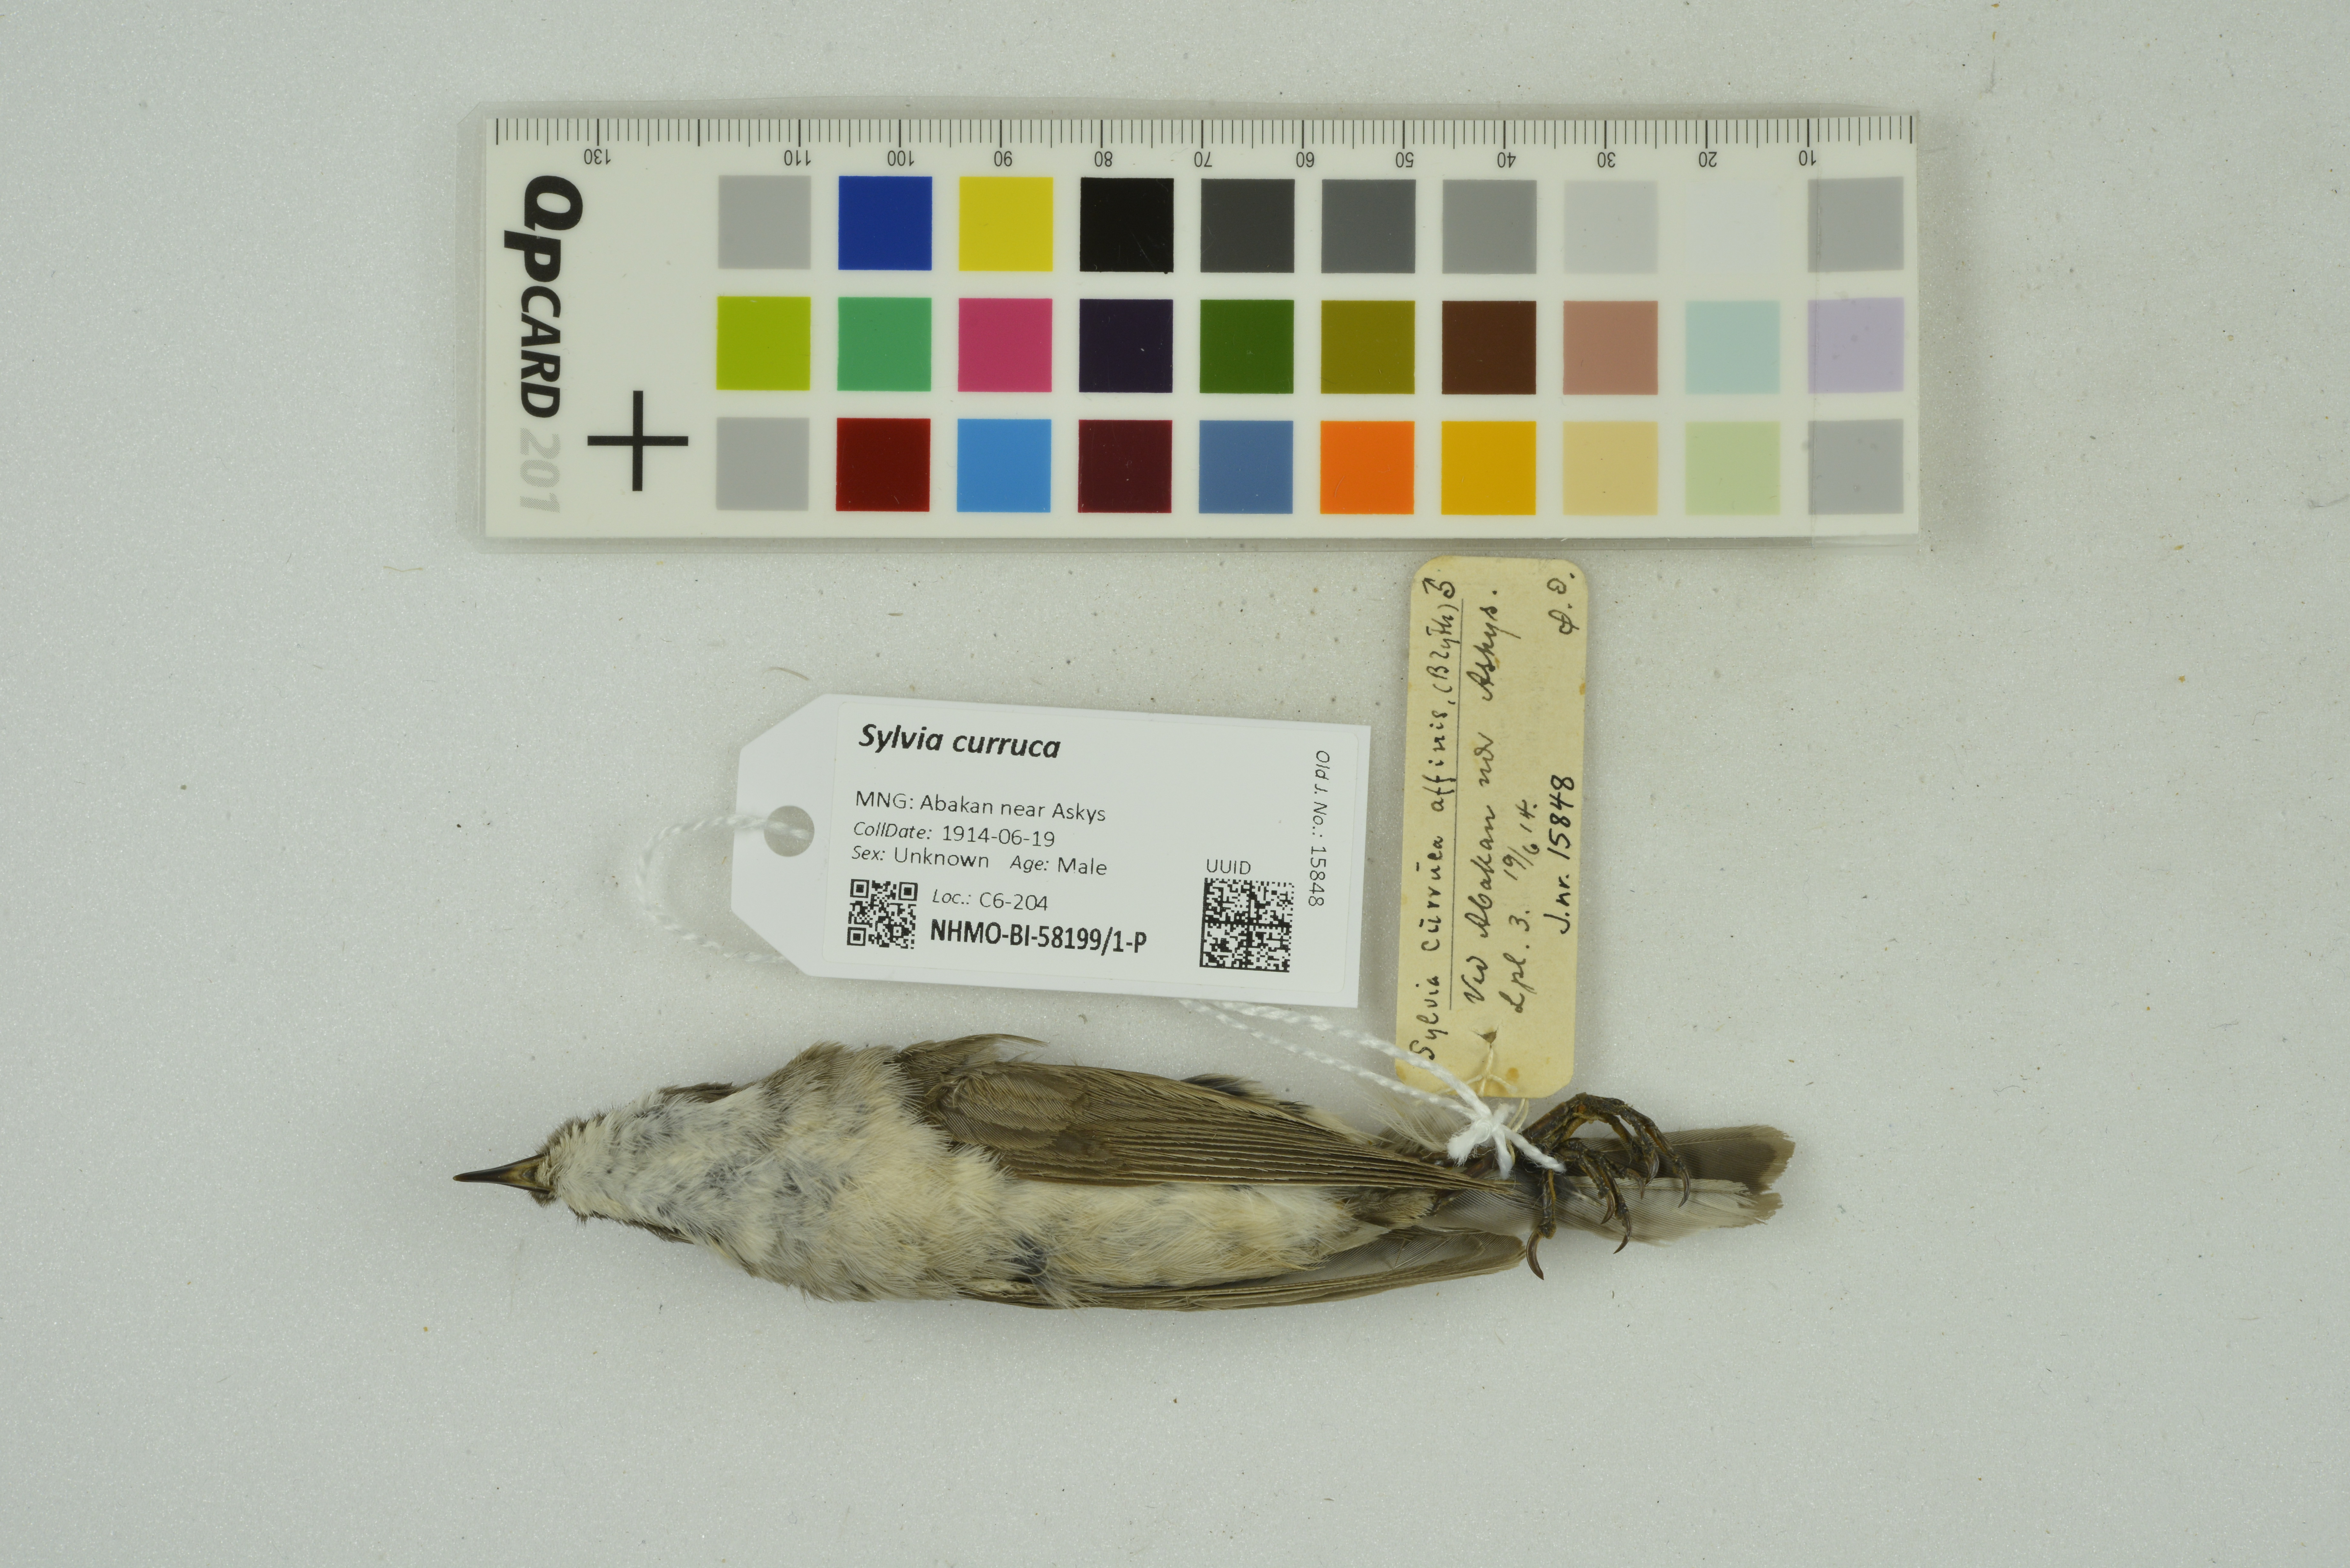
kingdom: Animalia
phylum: Chordata
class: Aves
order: Passeriformes
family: Sylviidae
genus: Sylvia
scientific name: Sylvia curruca
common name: Lesser whitethroat
